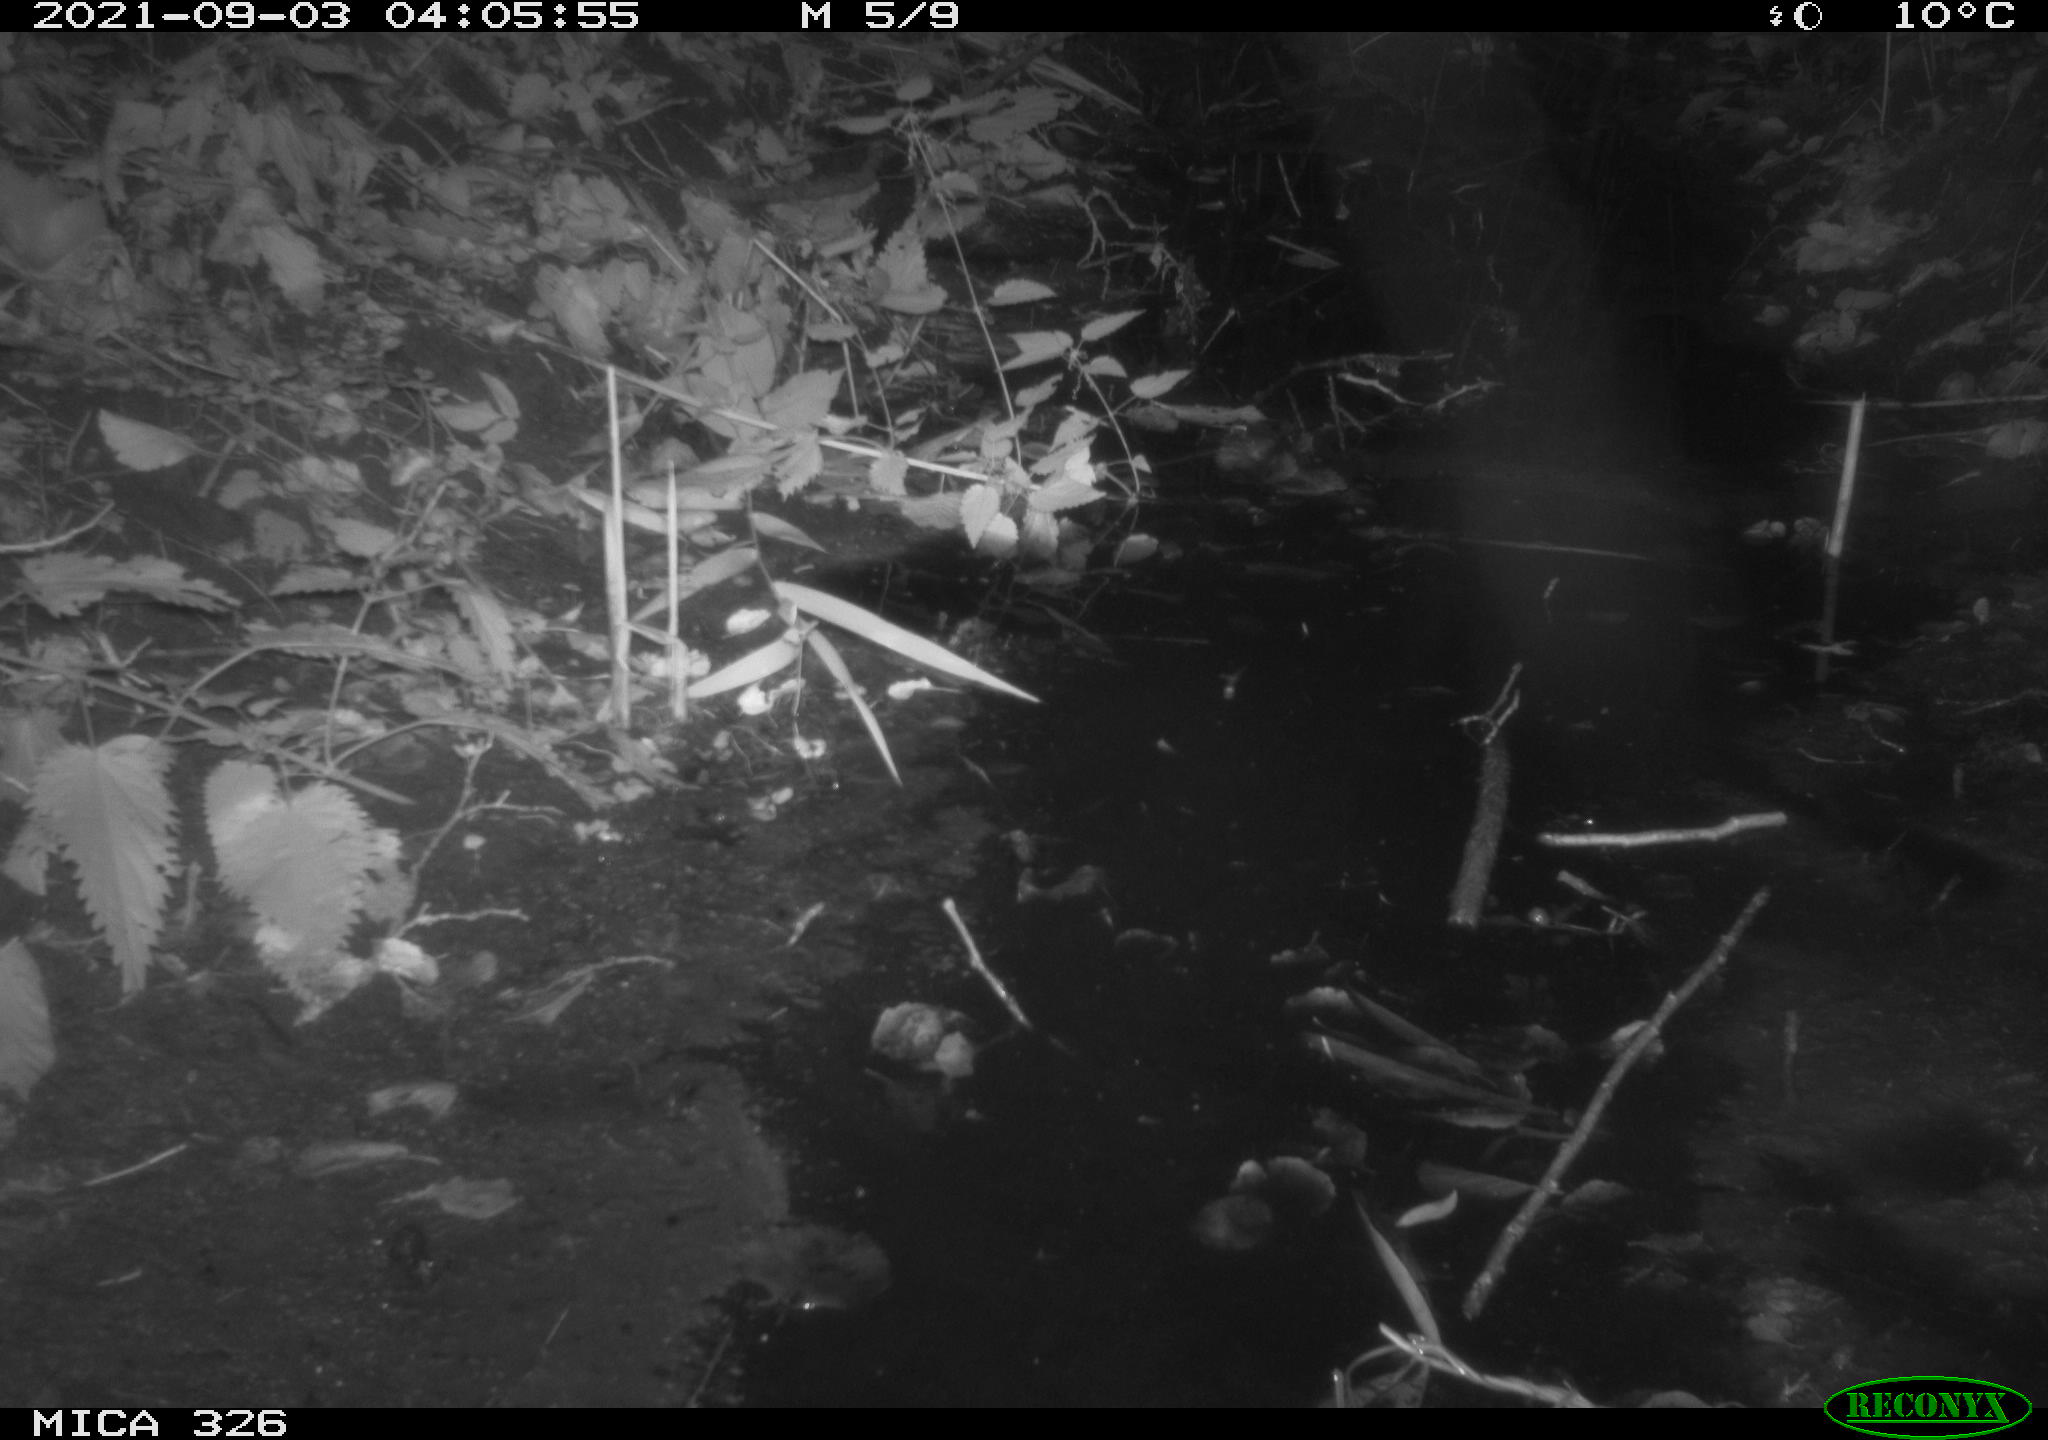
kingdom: Animalia
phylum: Chordata
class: Mammalia
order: Rodentia
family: Cricetidae
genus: Ondatra
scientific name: Ondatra zibethicus
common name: Muskrat
